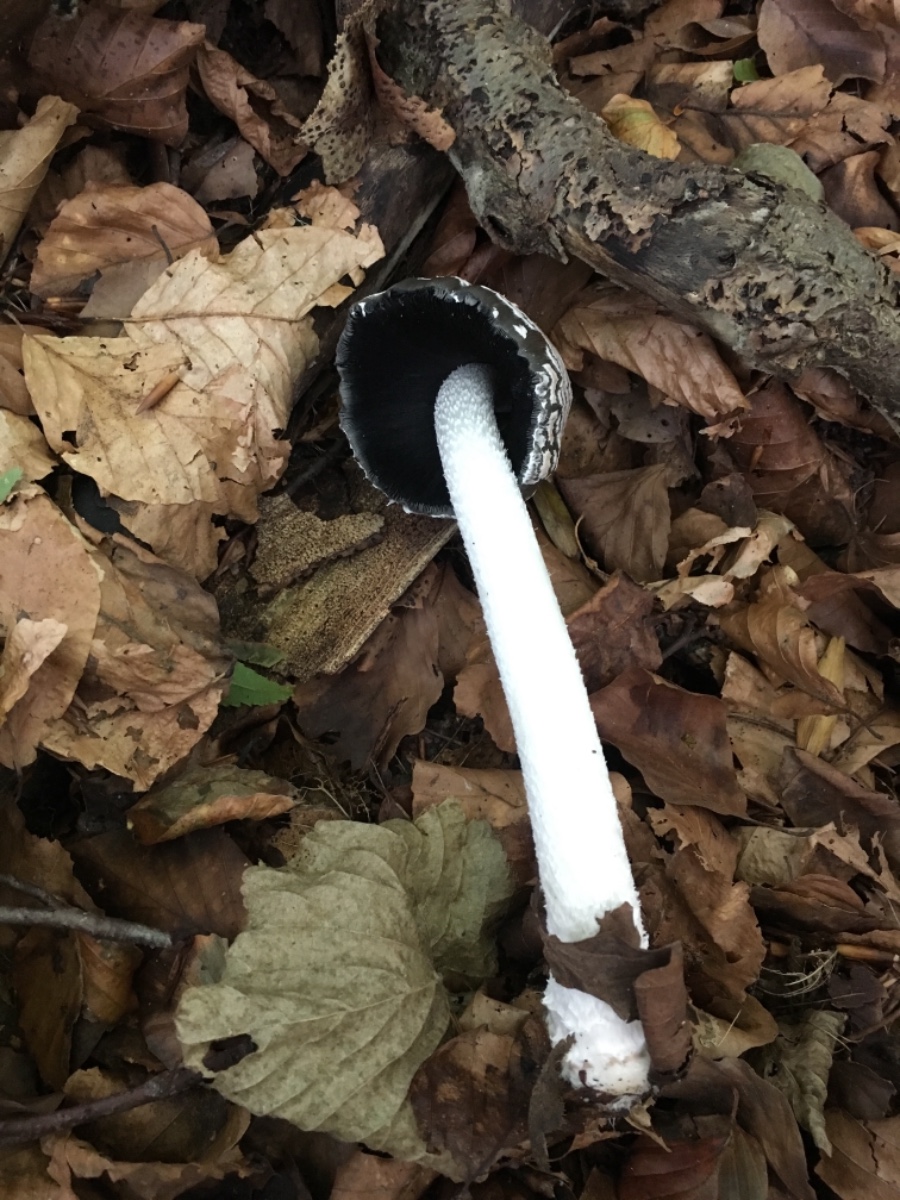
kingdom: Fungi
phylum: Basidiomycota
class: Agaricomycetes
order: Agaricales
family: Psathyrellaceae
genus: Coprinopsis
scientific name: Coprinopsis picacea
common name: skade-blækhat
